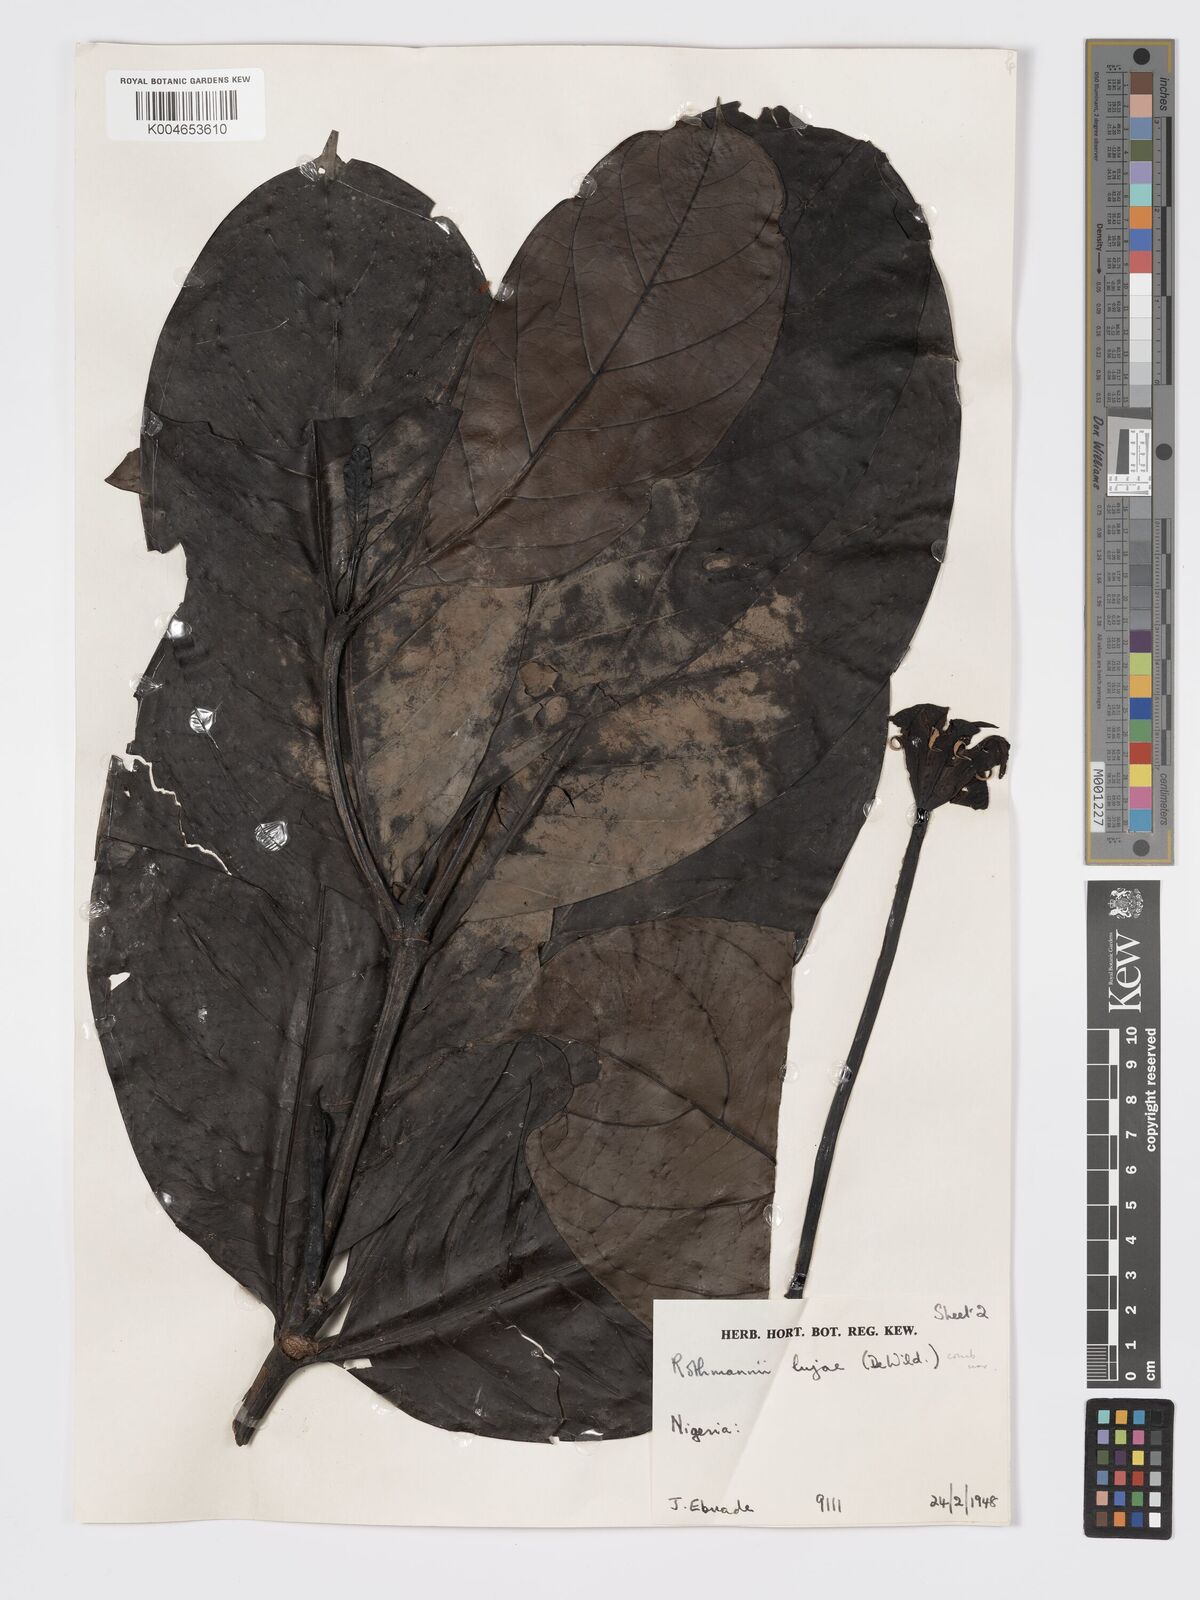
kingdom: Plantae
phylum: Tracheophyta
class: Magnoliopsida
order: Gentianales
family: Rubiaceae
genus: Rothmannia
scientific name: Rothmannia lujae
